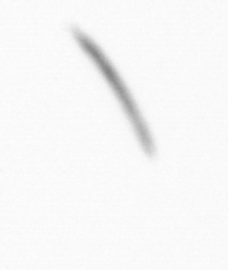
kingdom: Chromista
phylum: Ochrophyta
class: Bacillariophyceae
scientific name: Bacillariophyceae
